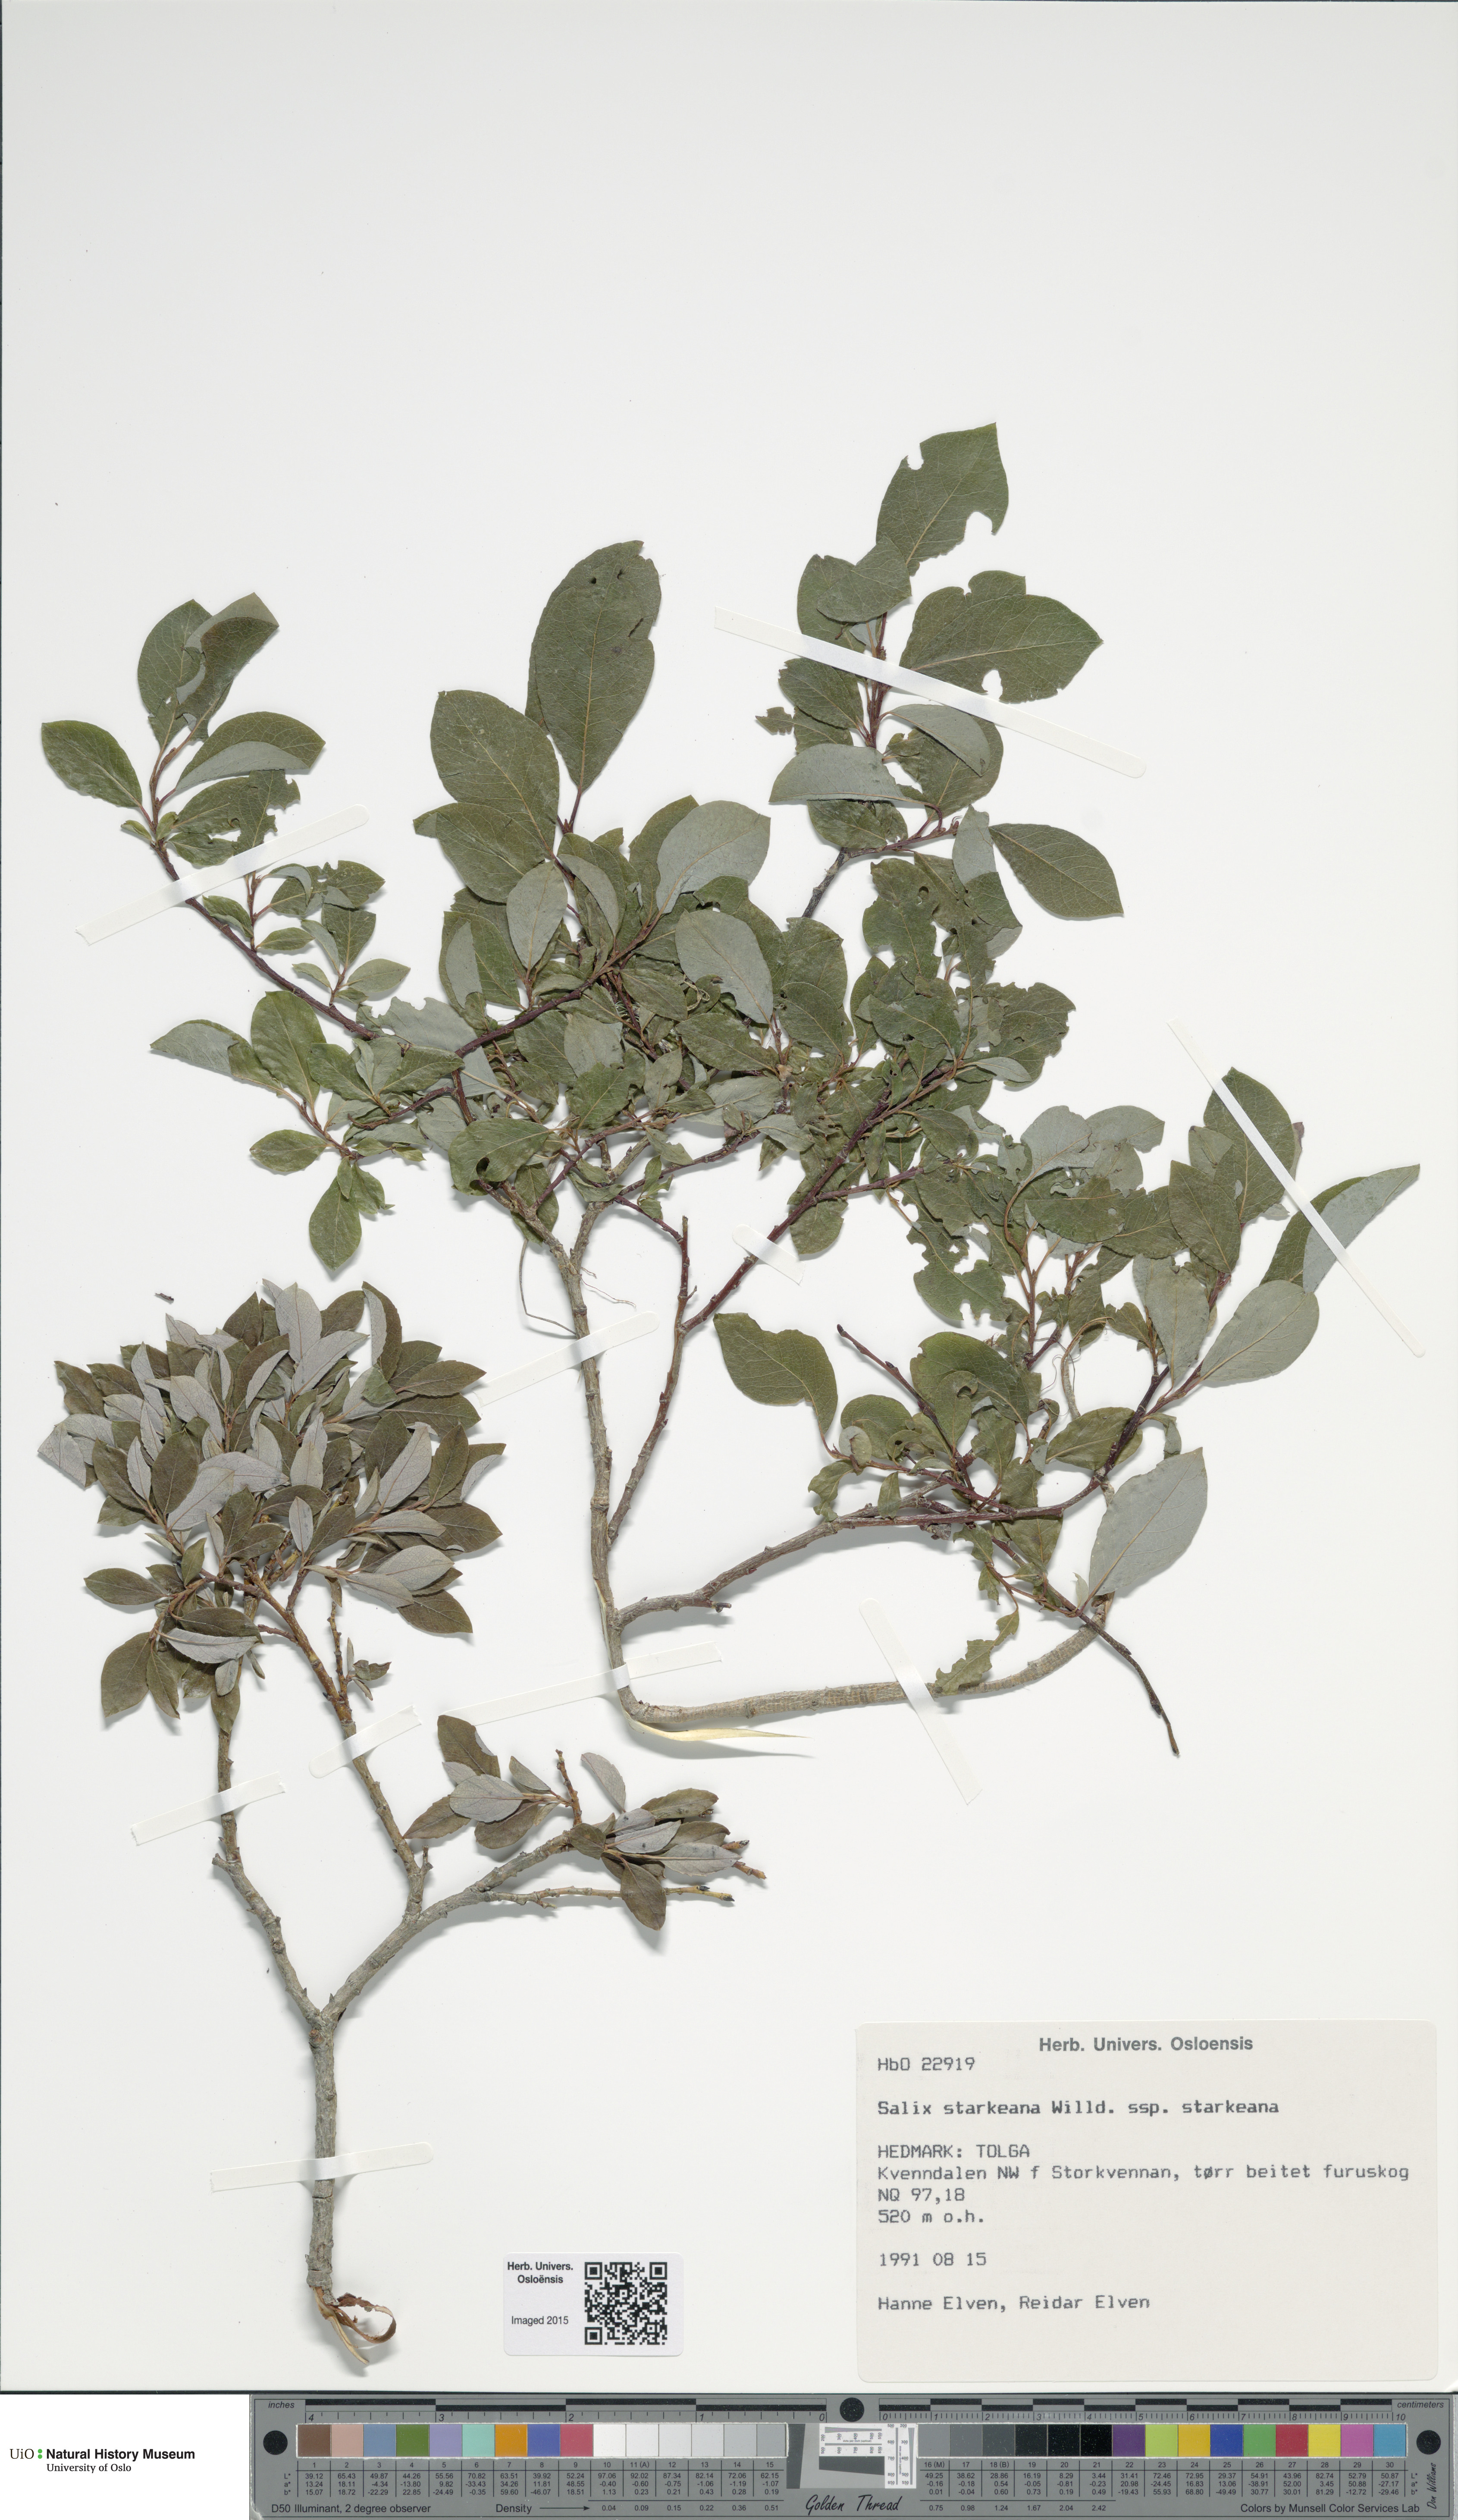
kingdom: Plantae
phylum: Tracheophyta
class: Magnoliopsida
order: Malpighiales
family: Salicaceae
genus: Salix
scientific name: Salix starkeana
